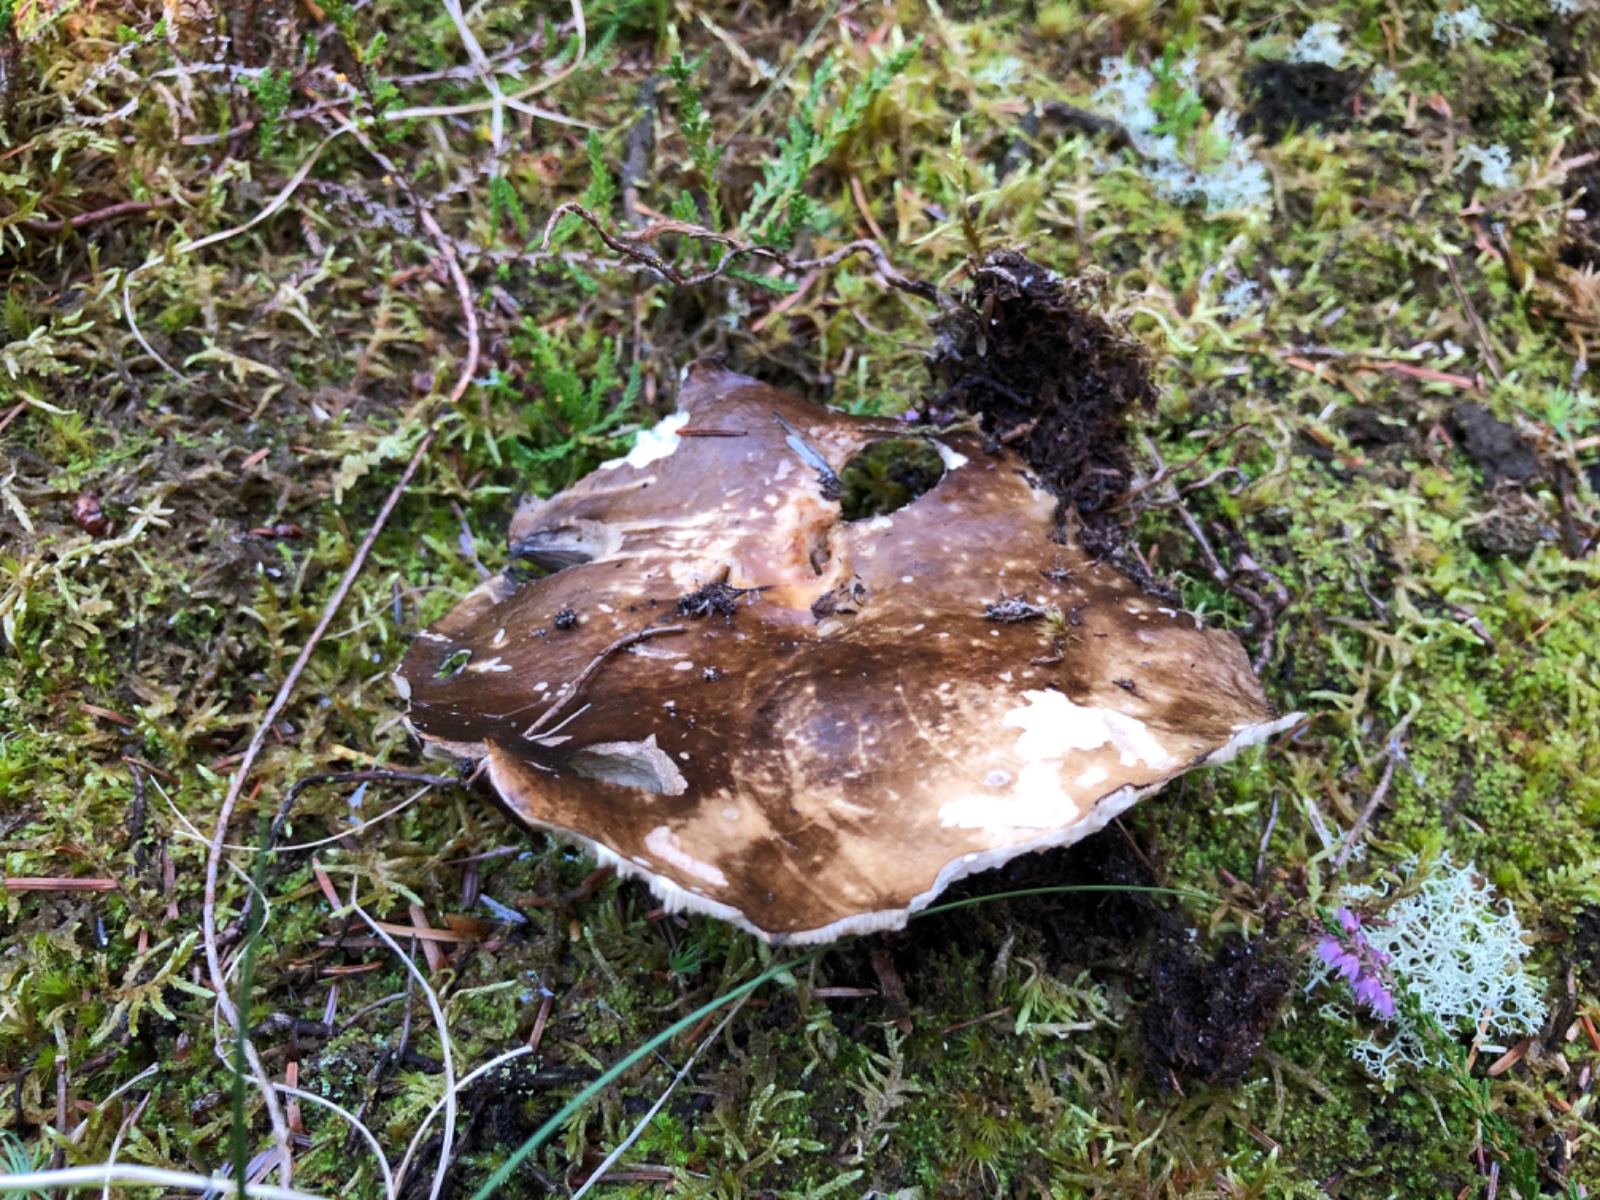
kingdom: Fungi
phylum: Basidiomycota
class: Agaricomycetes
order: Russulales
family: Russulaceae
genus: Russula
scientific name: Russula adusta
